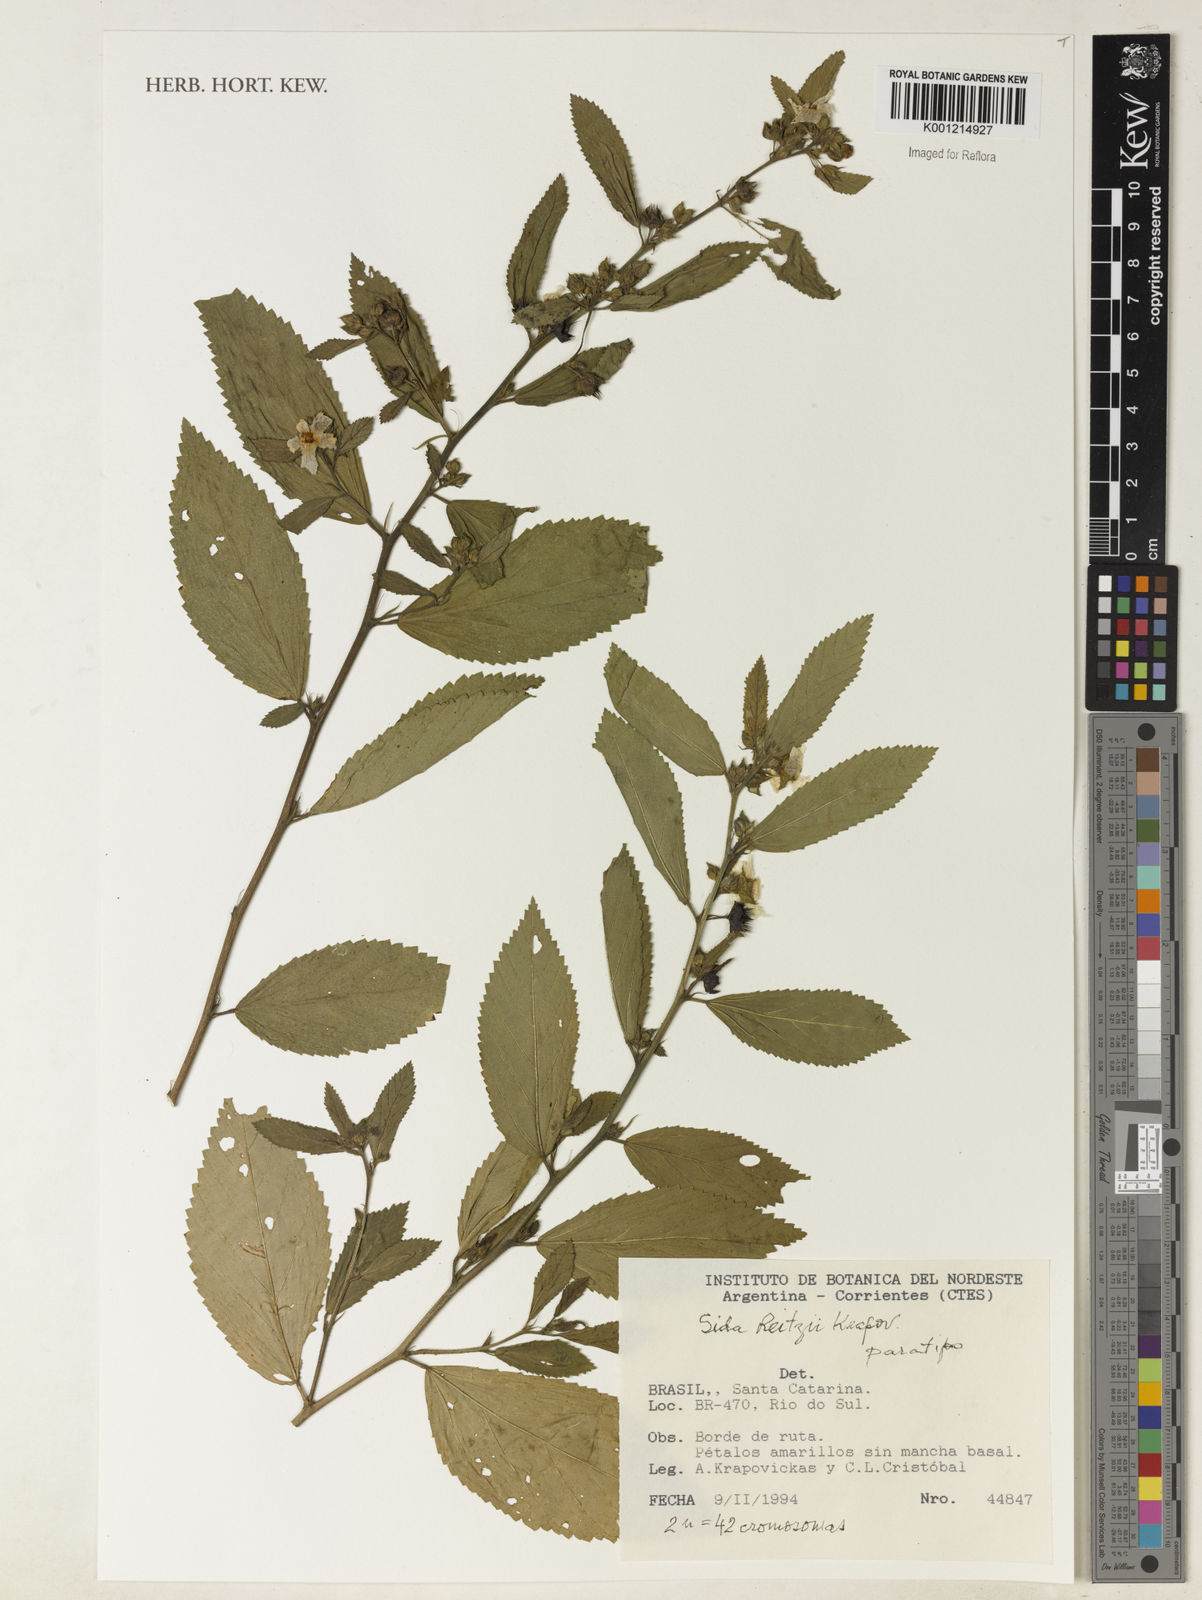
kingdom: Plantae
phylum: Tracheophyta
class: Magnoliopsida
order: Malvales
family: Malvaceae
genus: Sida
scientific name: Sida reitzii
